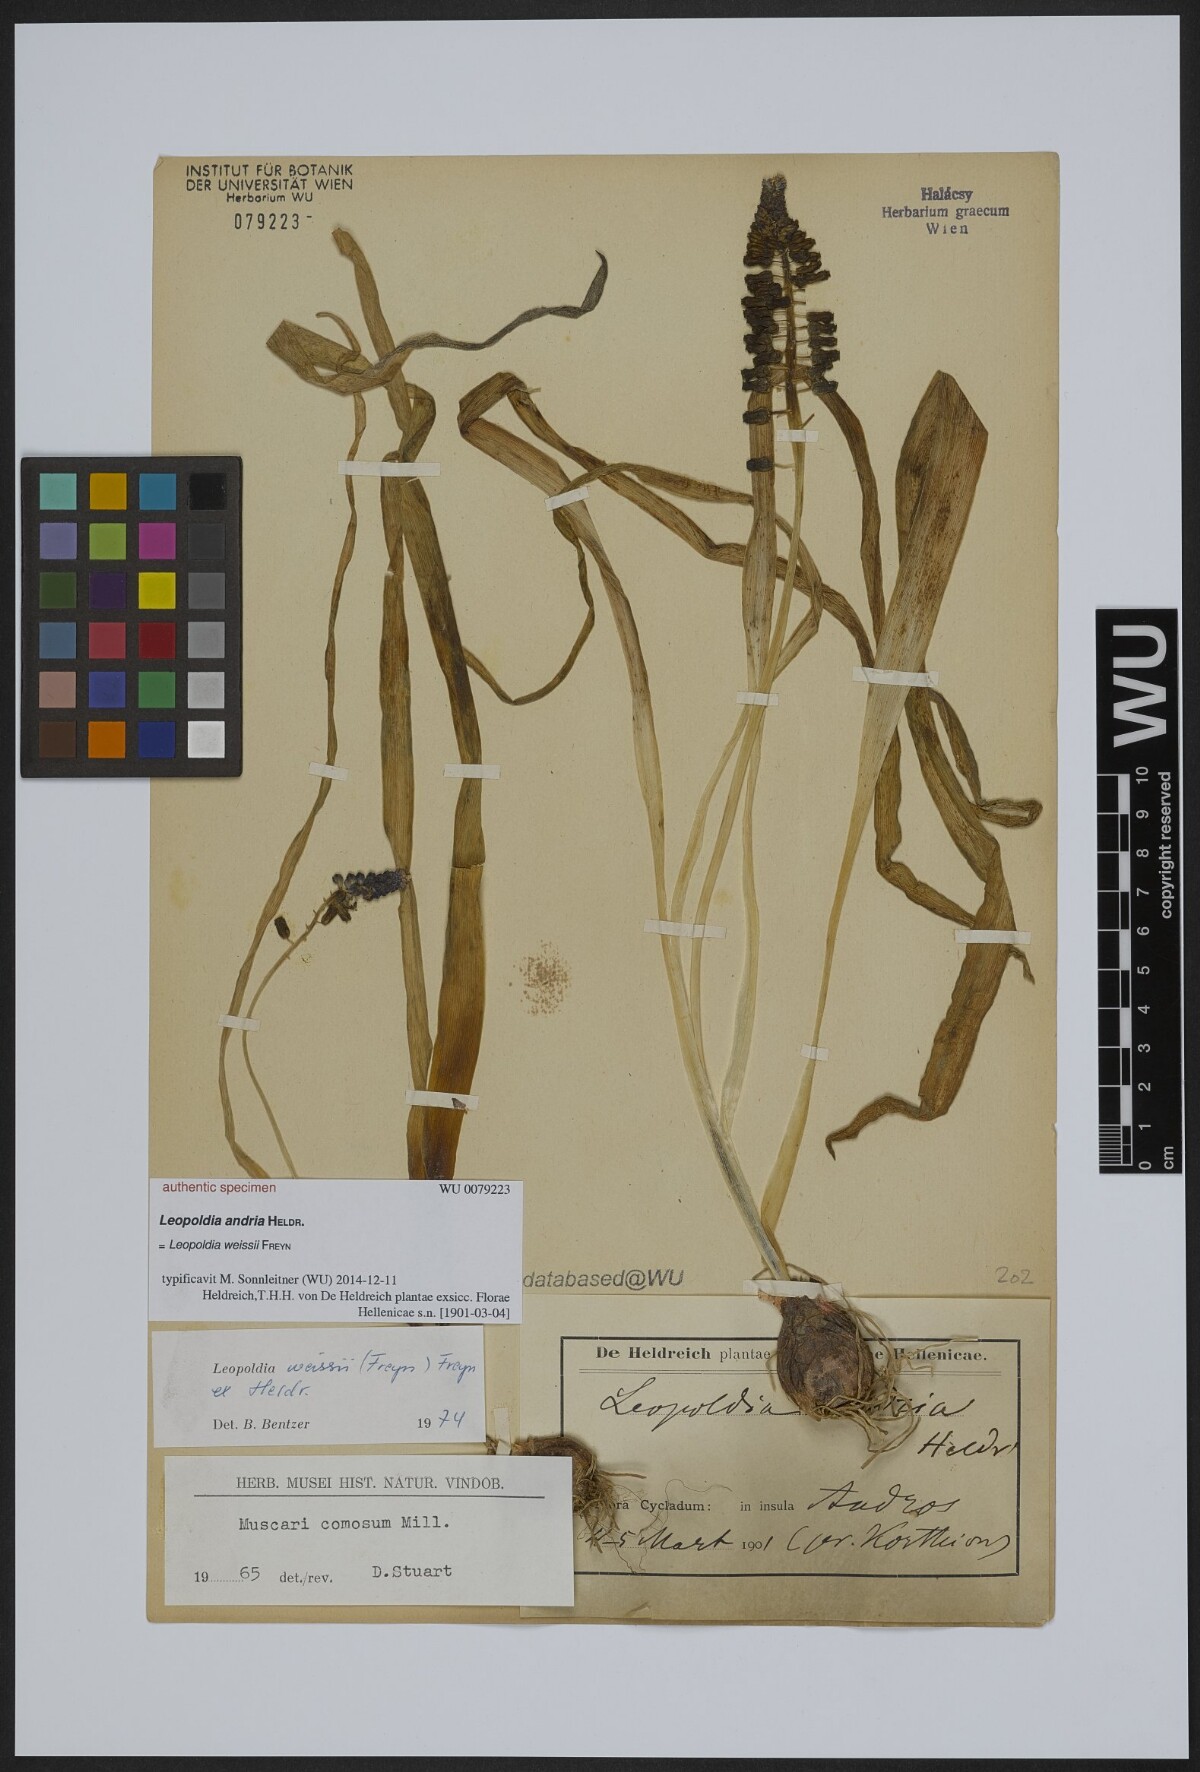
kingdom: Animalia
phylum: Mollusca
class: Cephalopoda
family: Neocomitidae
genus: Leopoldia
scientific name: Leopoldia
